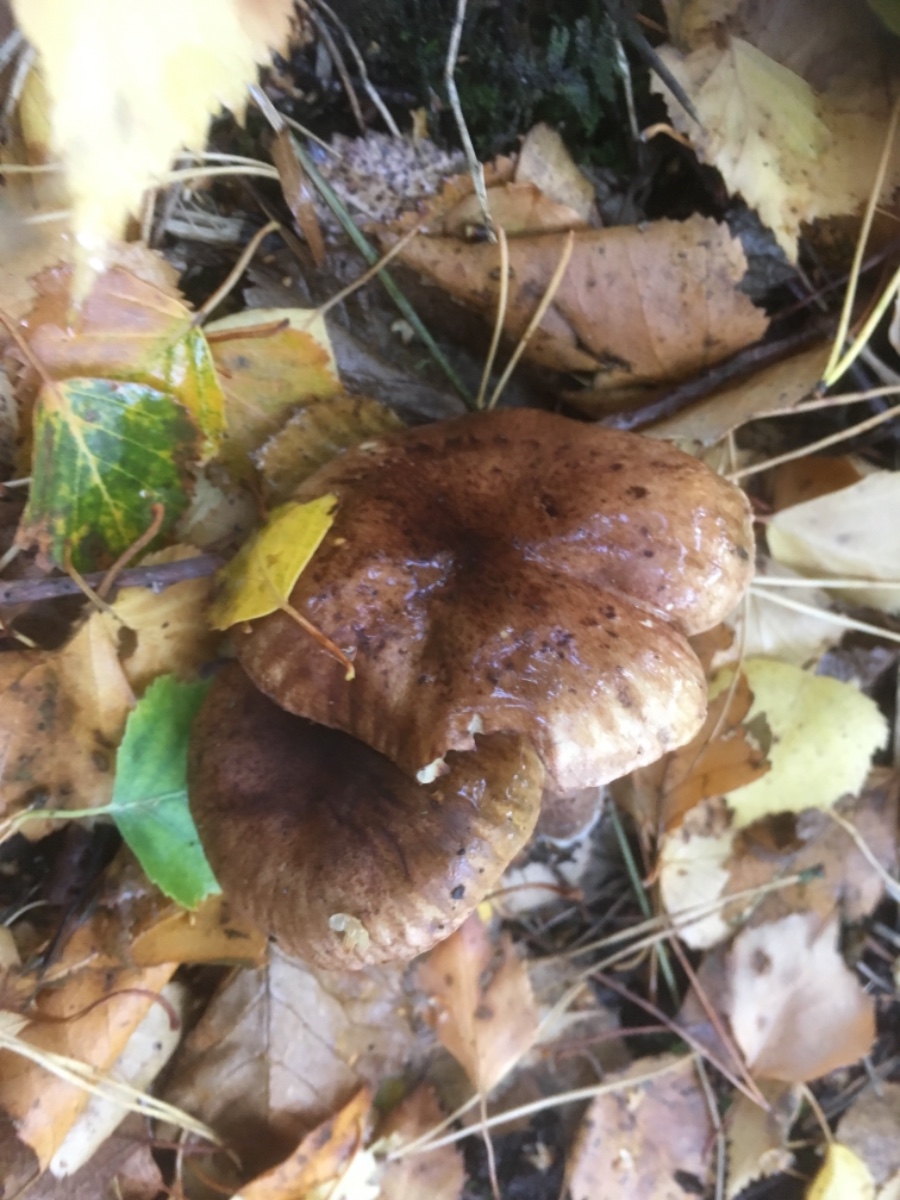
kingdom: Fungi
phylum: Basidiomycota
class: Agaricomycetes
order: Agaricales
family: Tricholomataceae
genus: Tricholoma
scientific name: Tricholoma fulvum
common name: birke-ridderhat
